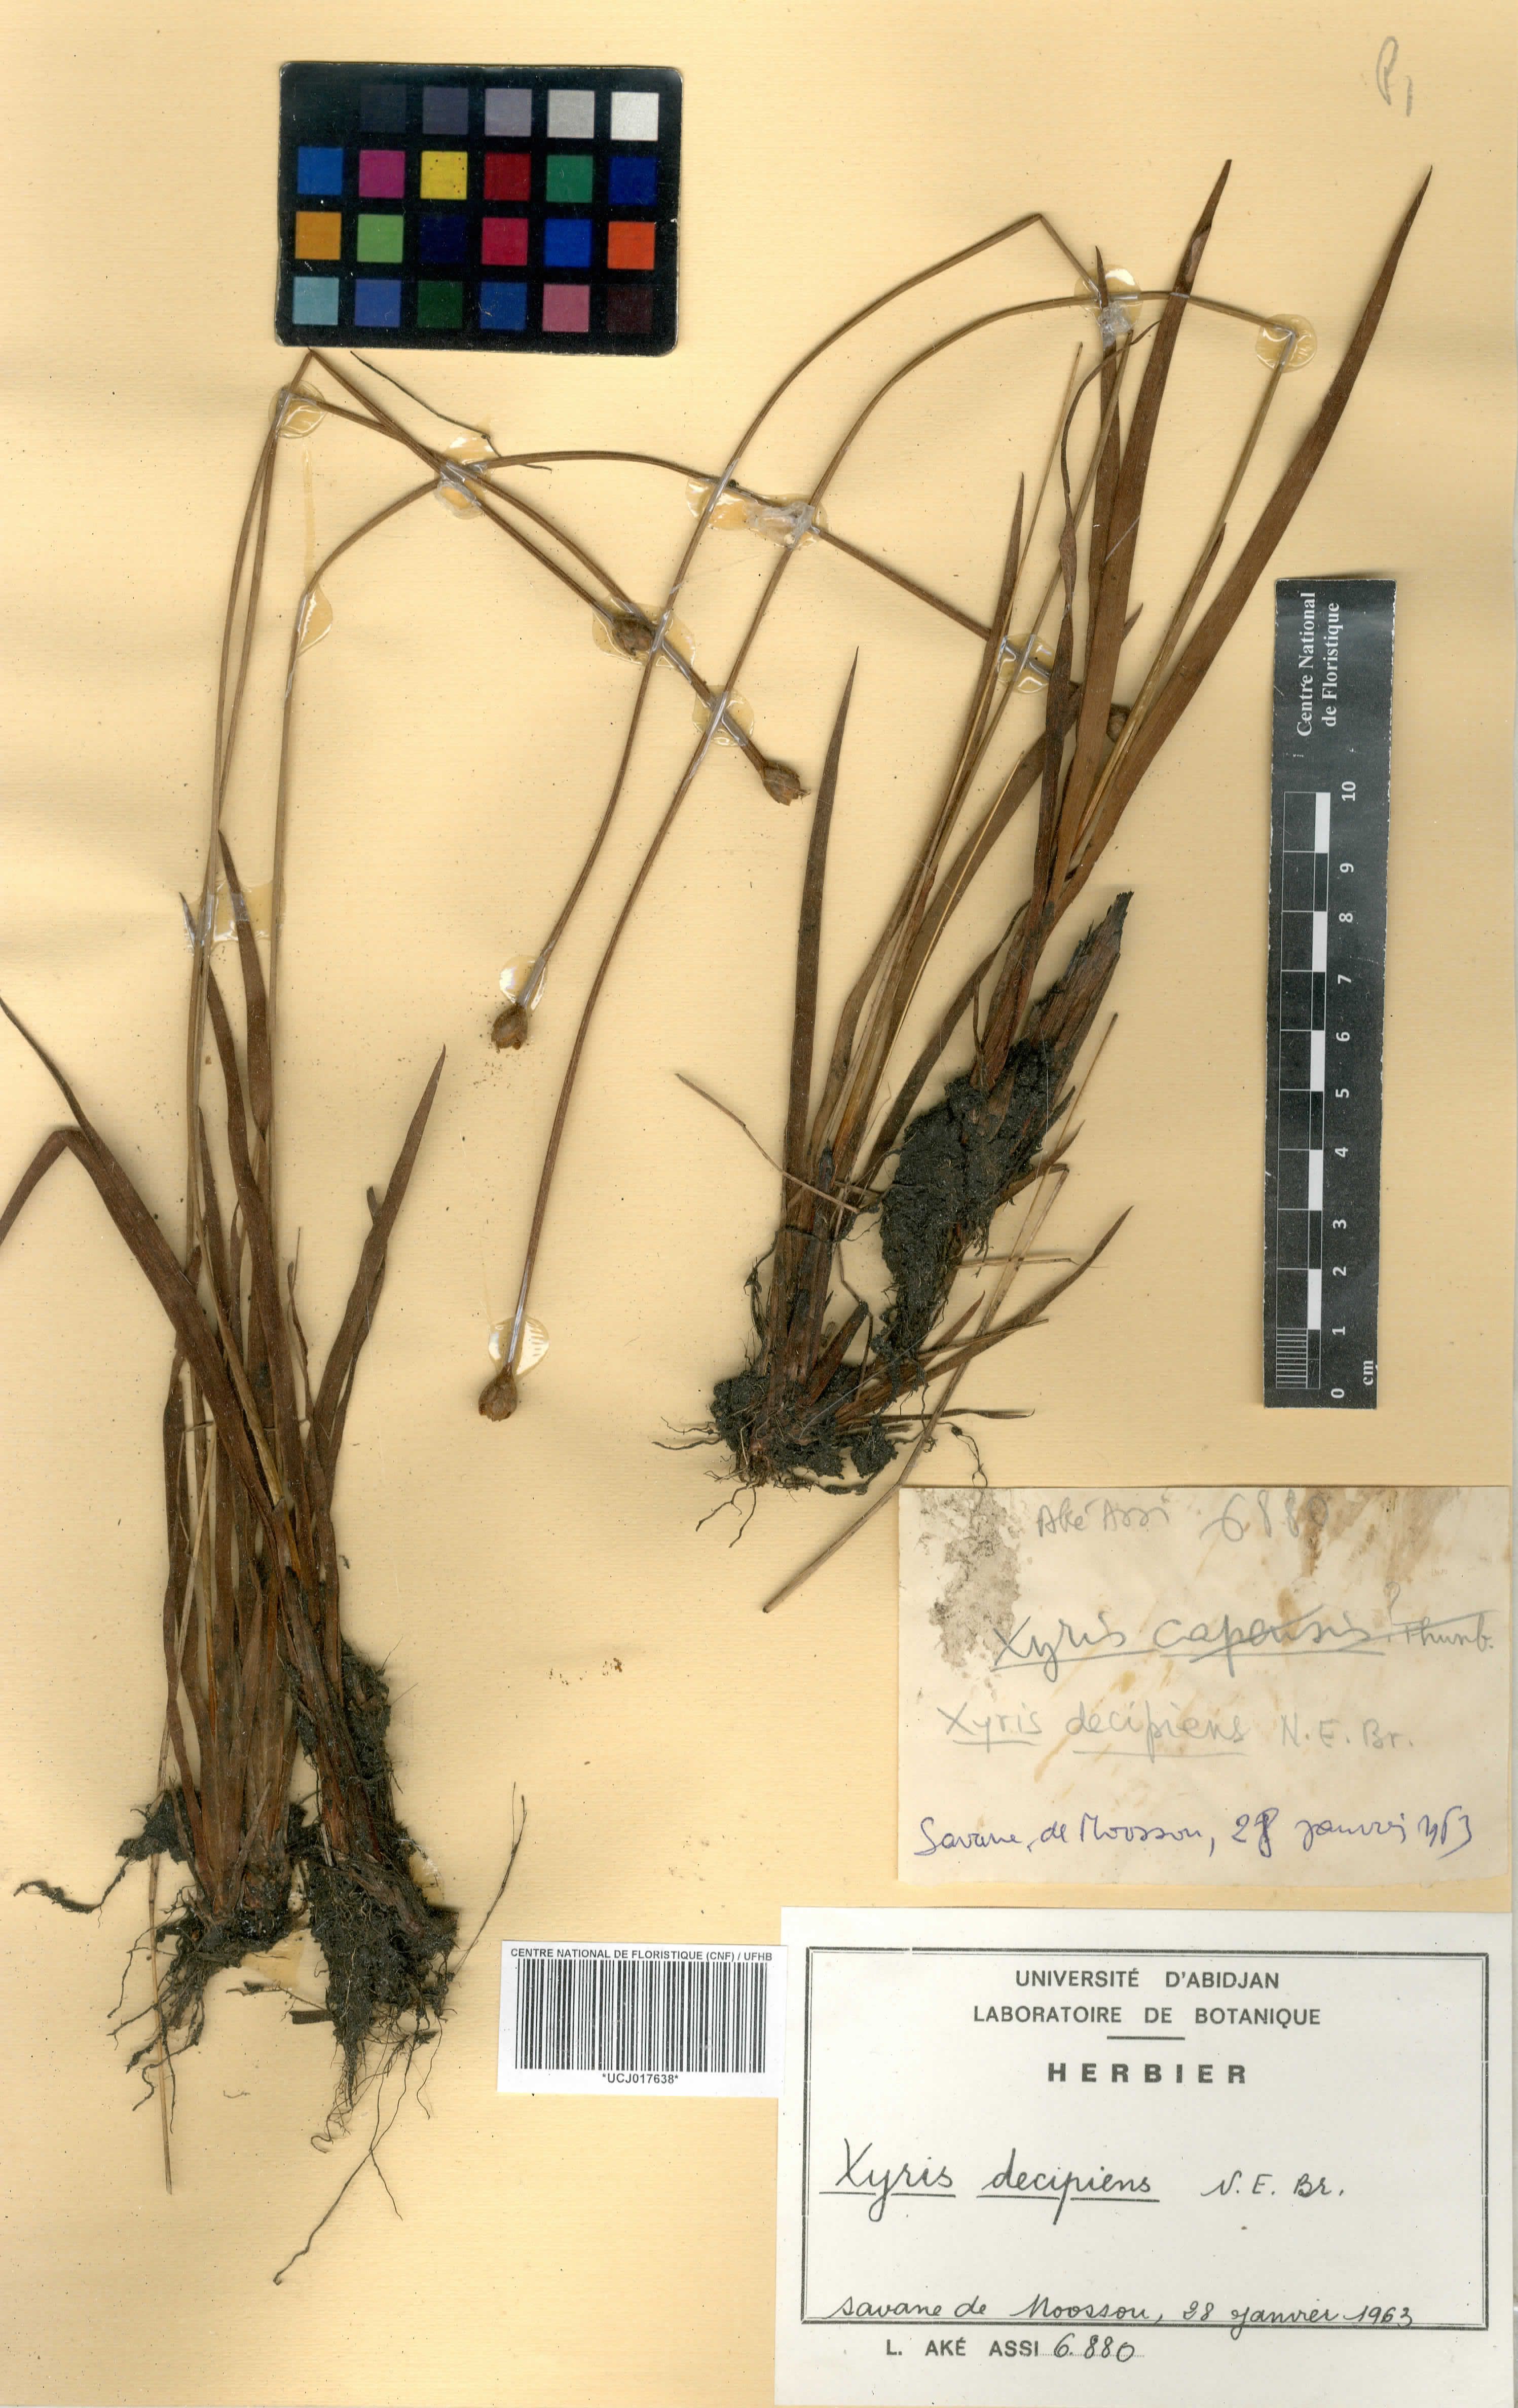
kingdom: Plantae
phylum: Tracheophyta
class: Liliopsida
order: Poales
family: Xyridaceae
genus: Xyris
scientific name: Xyris decipiens
